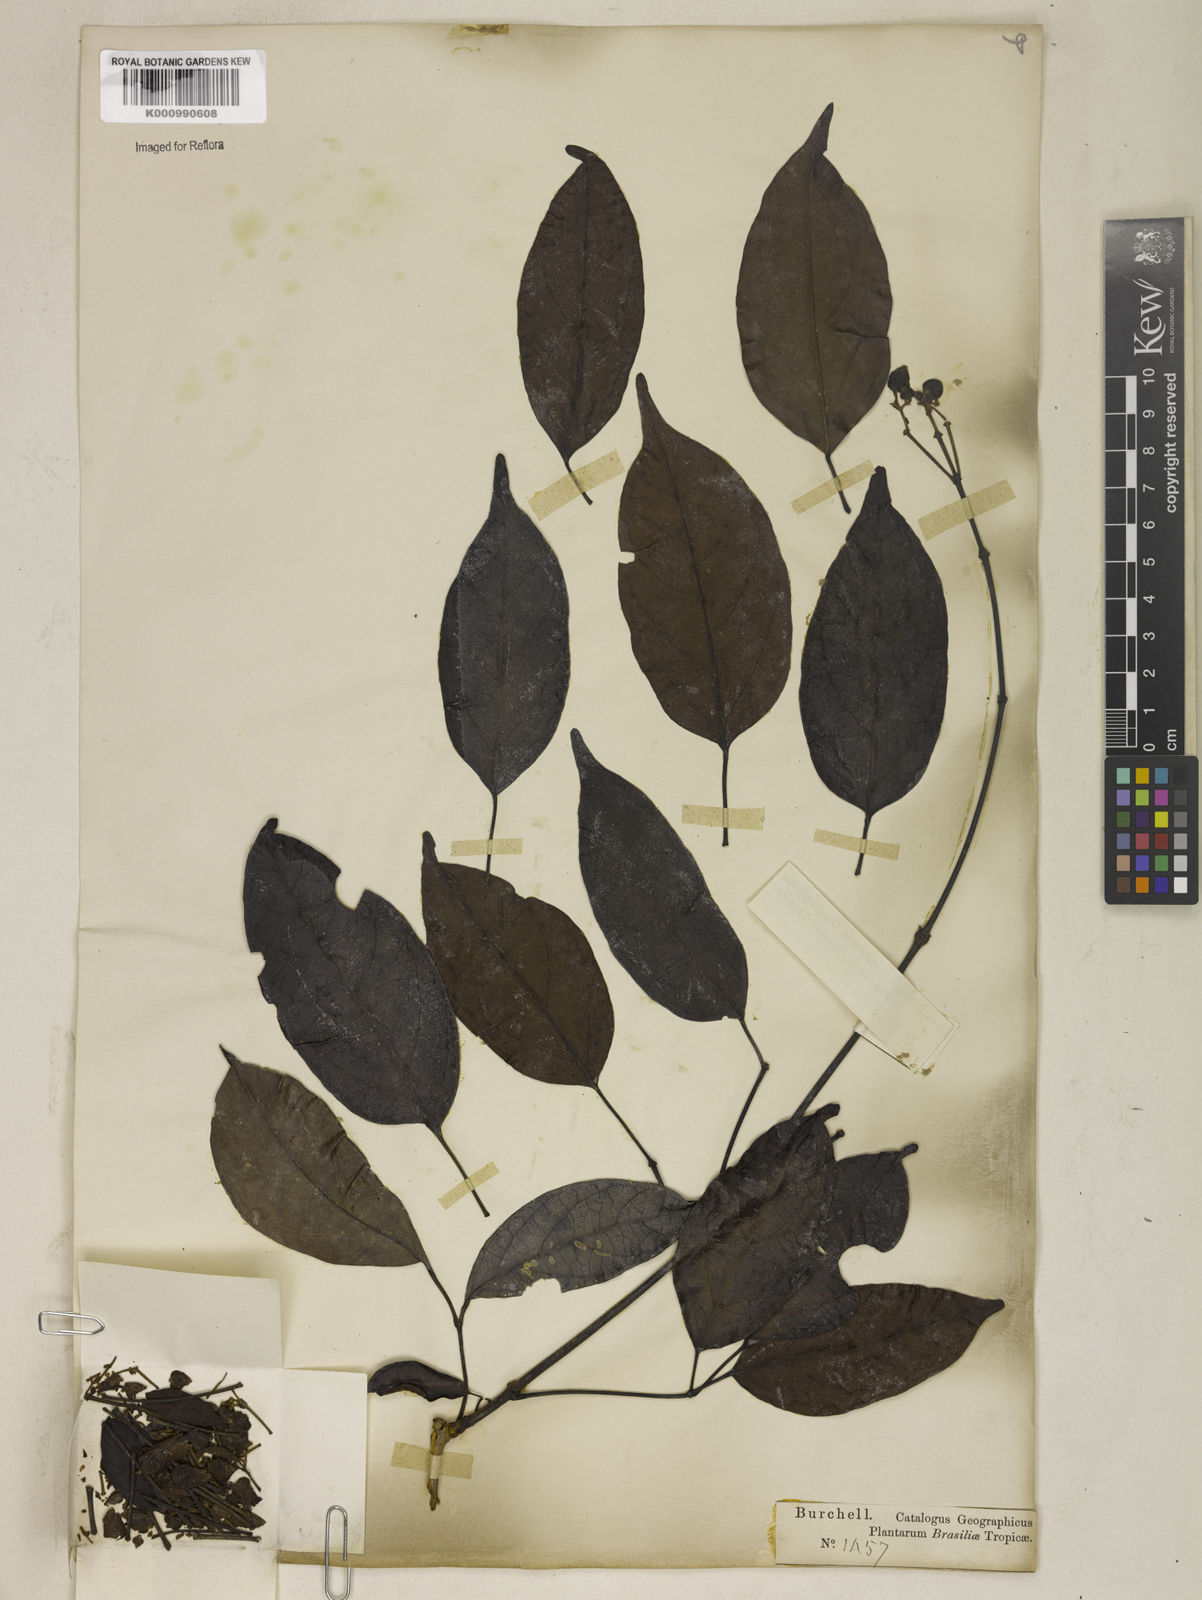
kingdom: Plantae
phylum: Tracheophyta
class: Magnoliopsida
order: Lamiales
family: Bignoniaceae
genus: Fridericia
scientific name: Fridericia speciosa
